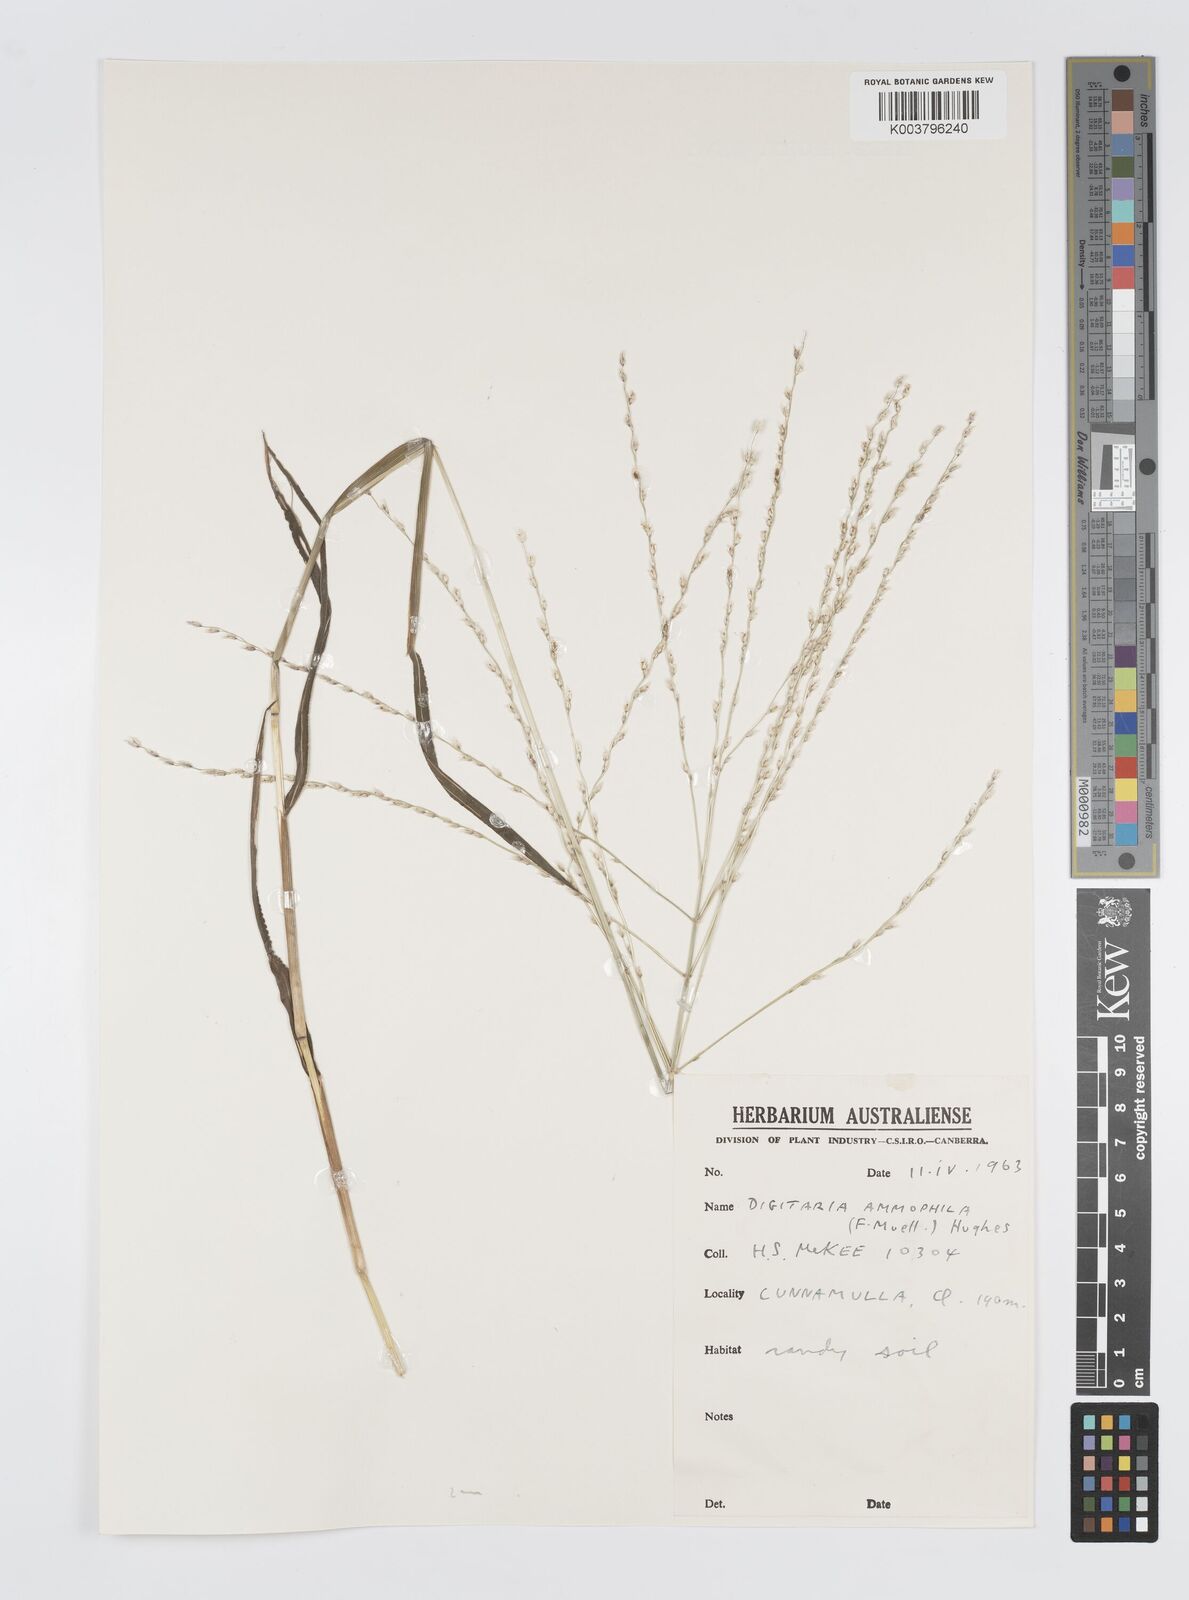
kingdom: Plantae
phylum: Tracheophyta
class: Liliopsida
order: Poales
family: Poaceae
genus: Digitaria
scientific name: Digitaria ammophila
